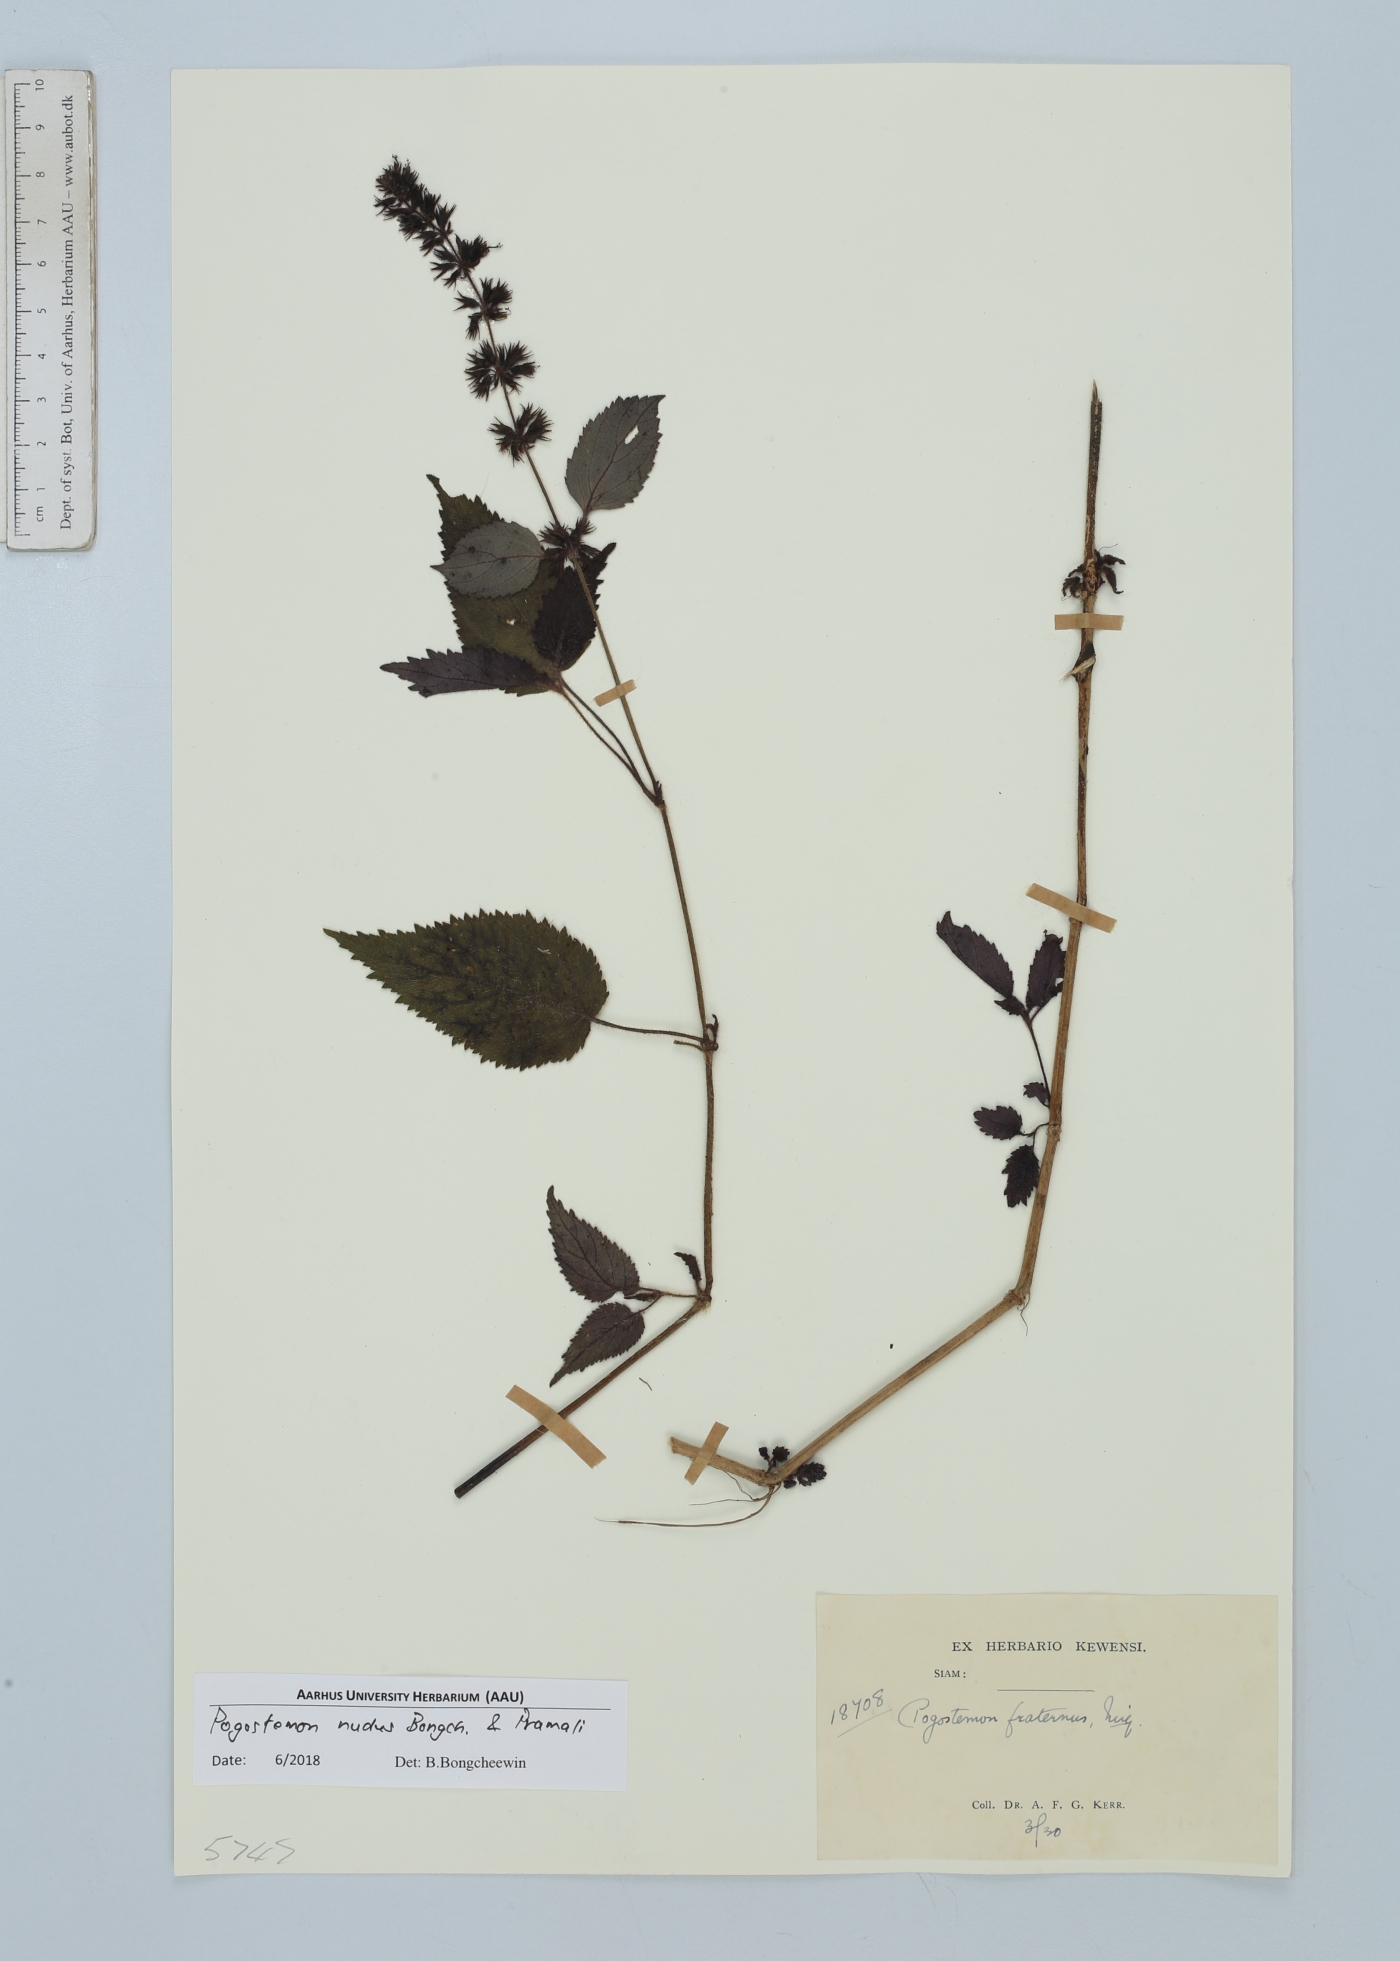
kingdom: Plantae
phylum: Tracheophyta
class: Magnoliopsida
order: Lamiales
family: Lamiaceae
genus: Pogostemon
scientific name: Pogostemon nudus
